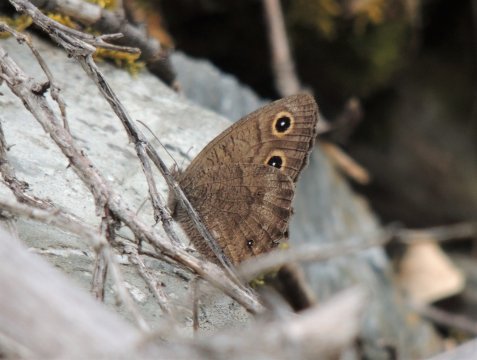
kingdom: Animalia
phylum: Arthropoda
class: Insecta
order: Lepidoptera
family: Nymphalidae
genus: Cercyonis
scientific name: Cercyonis pegala
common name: Common Wood-Nymph
